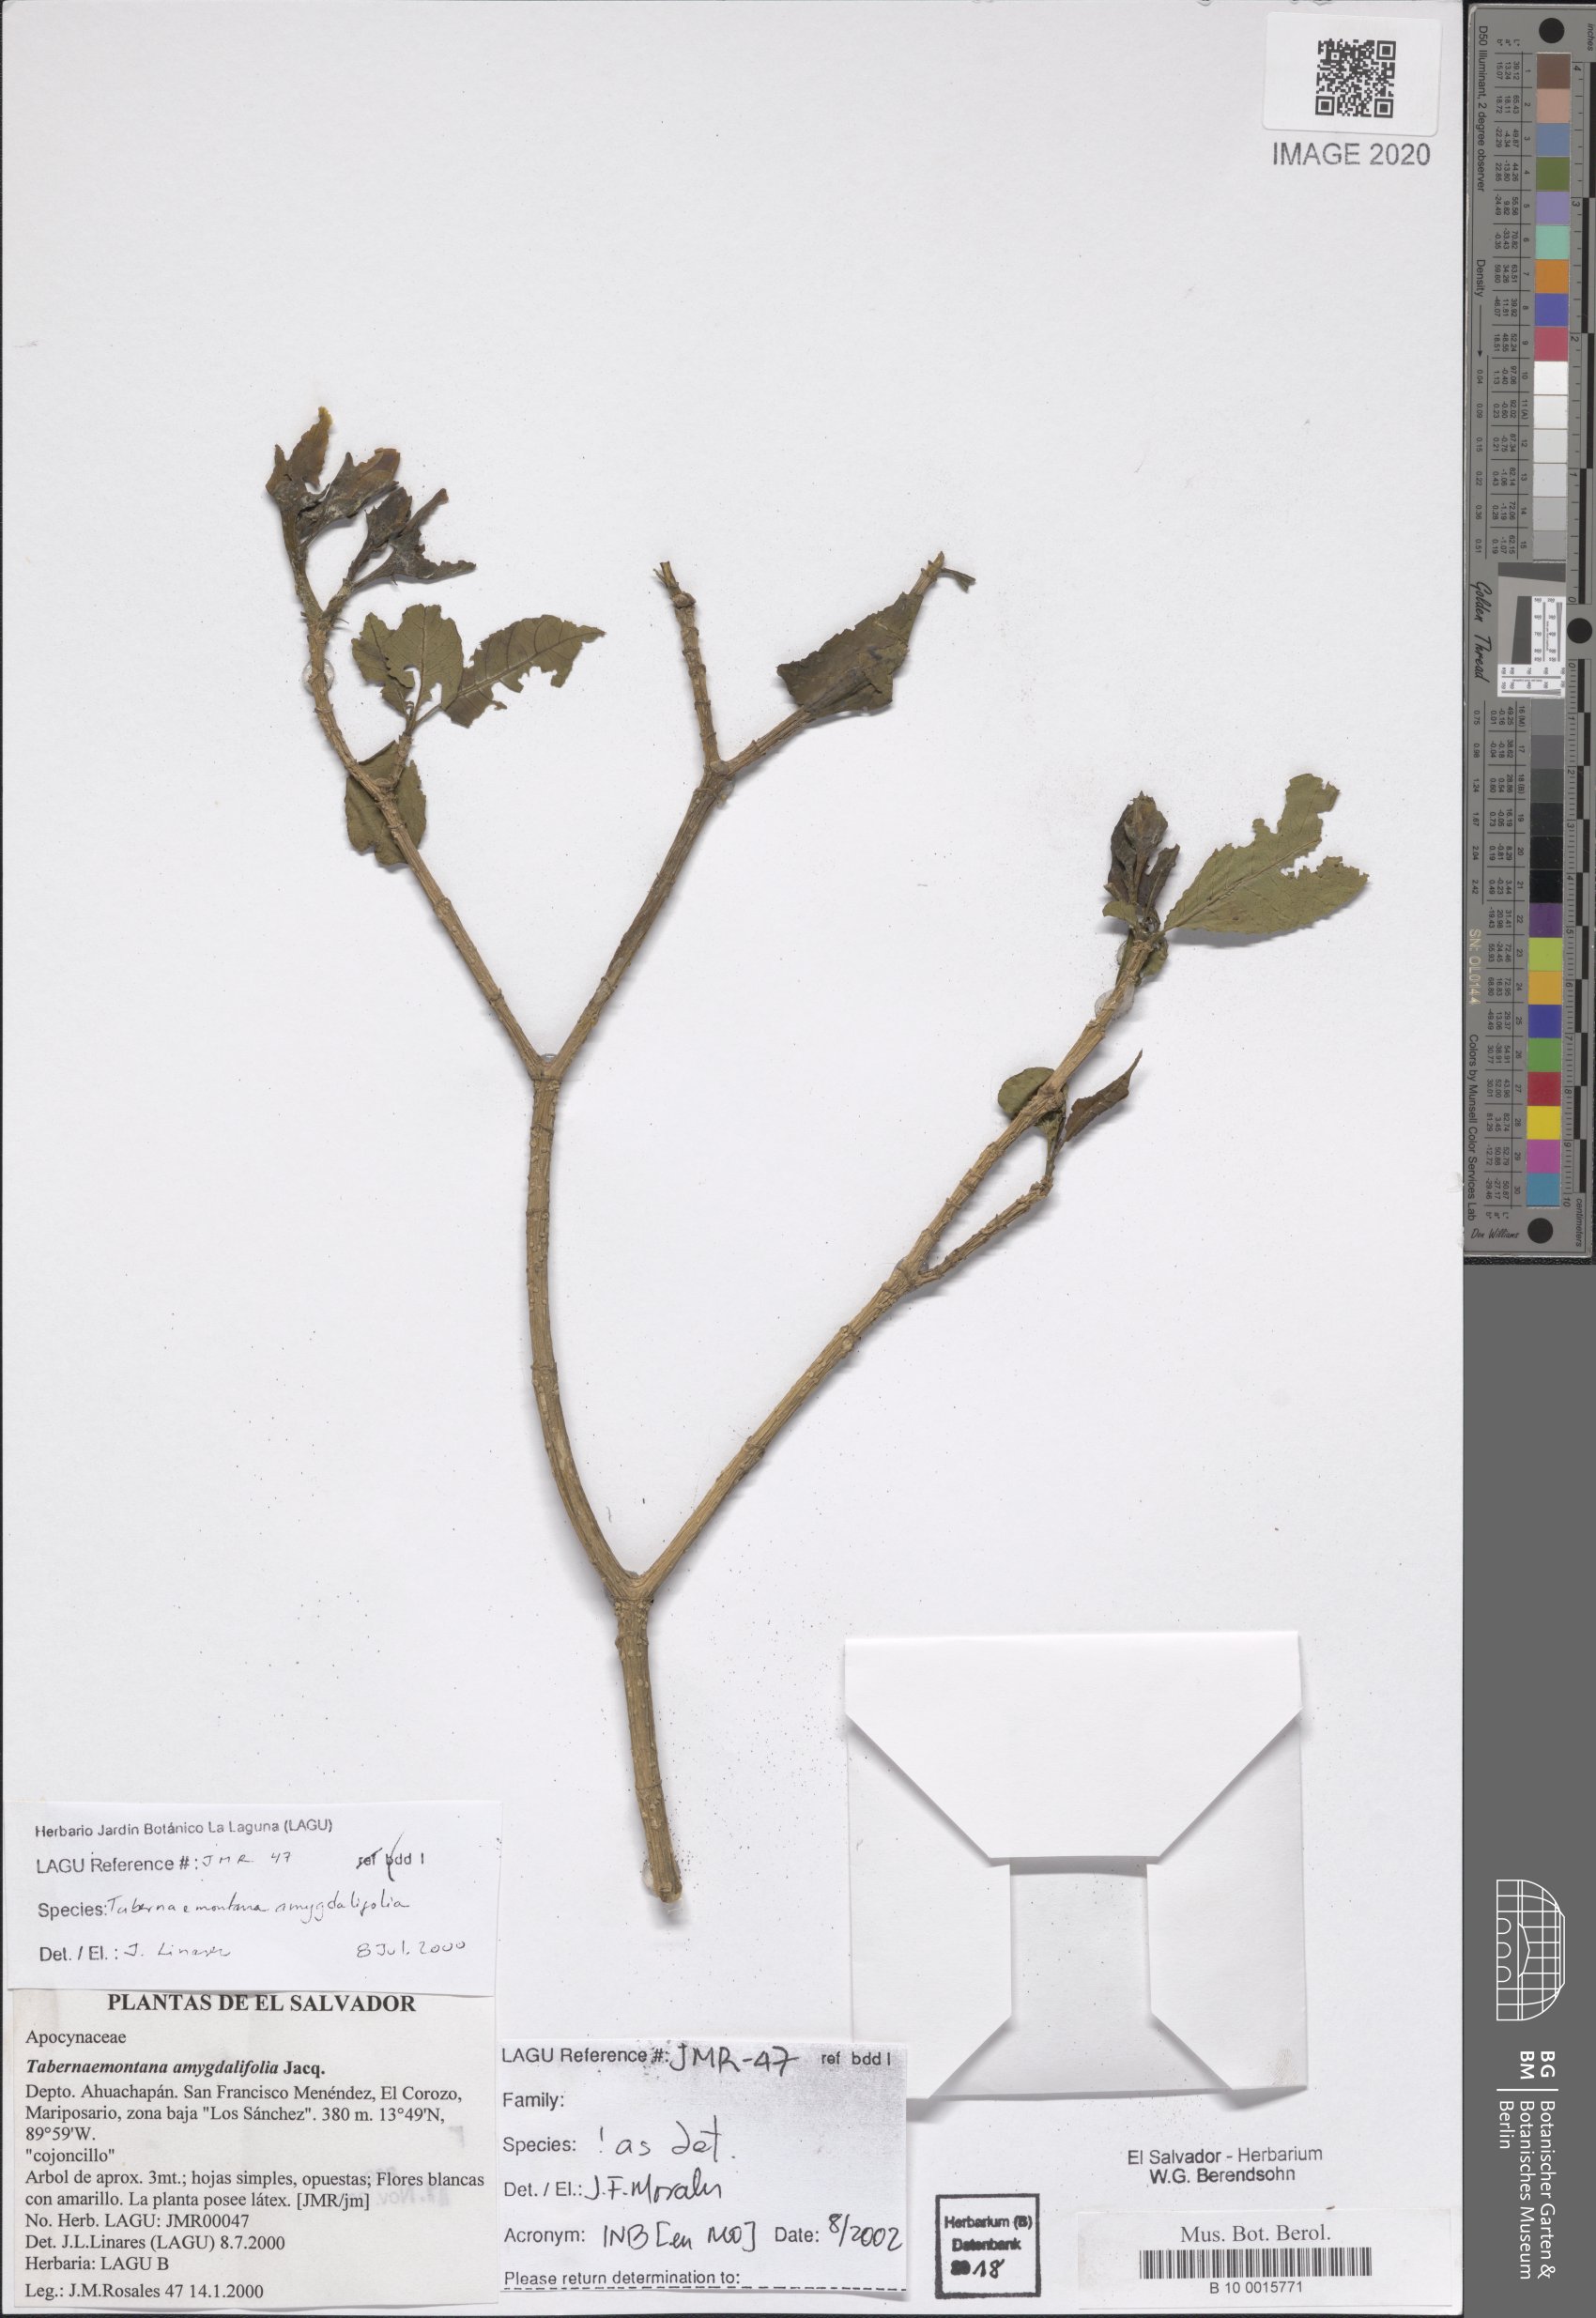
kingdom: Plantae
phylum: Tracheophyta
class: Magnoliopsida
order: Gentianales
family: Apocynaceae
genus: Tabernaemontana
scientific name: Tabernaemontana amygdalifolia
